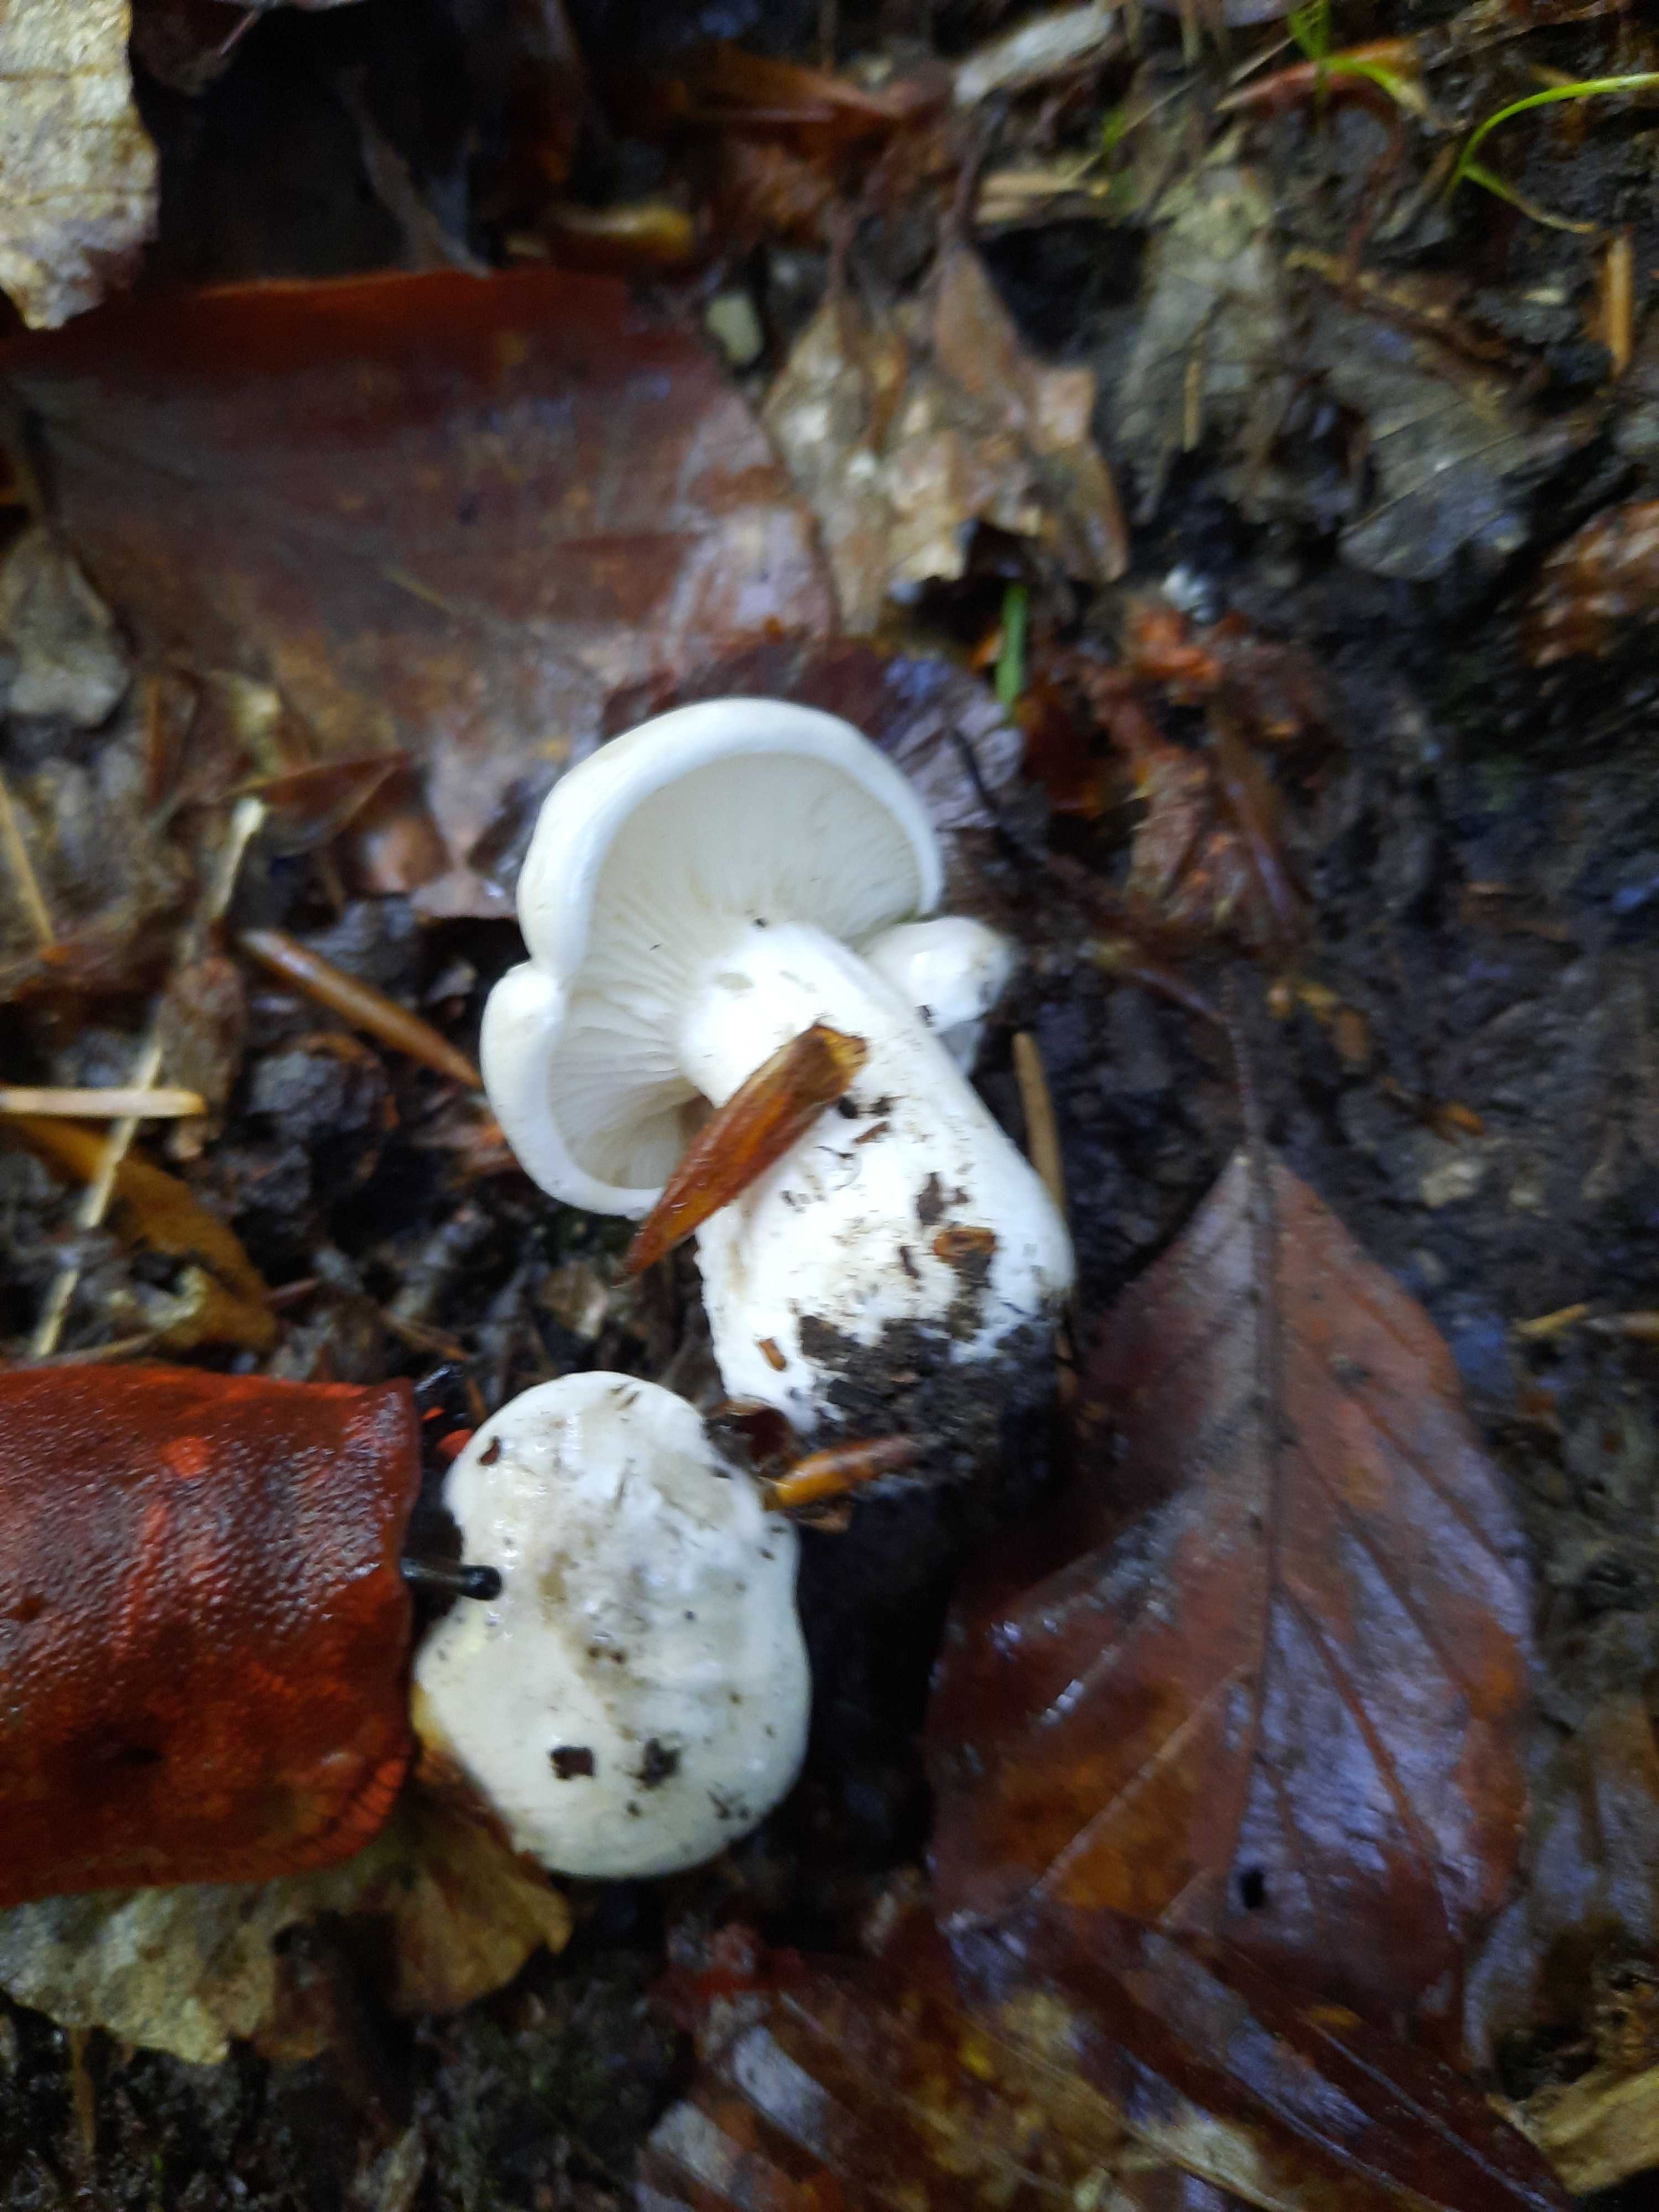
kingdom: Fungi
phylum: Basidiomycota
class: Agaricomycetes
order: Agaricales
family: Entolomataceae
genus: Clitopilus
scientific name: Clitopilus prunulus
